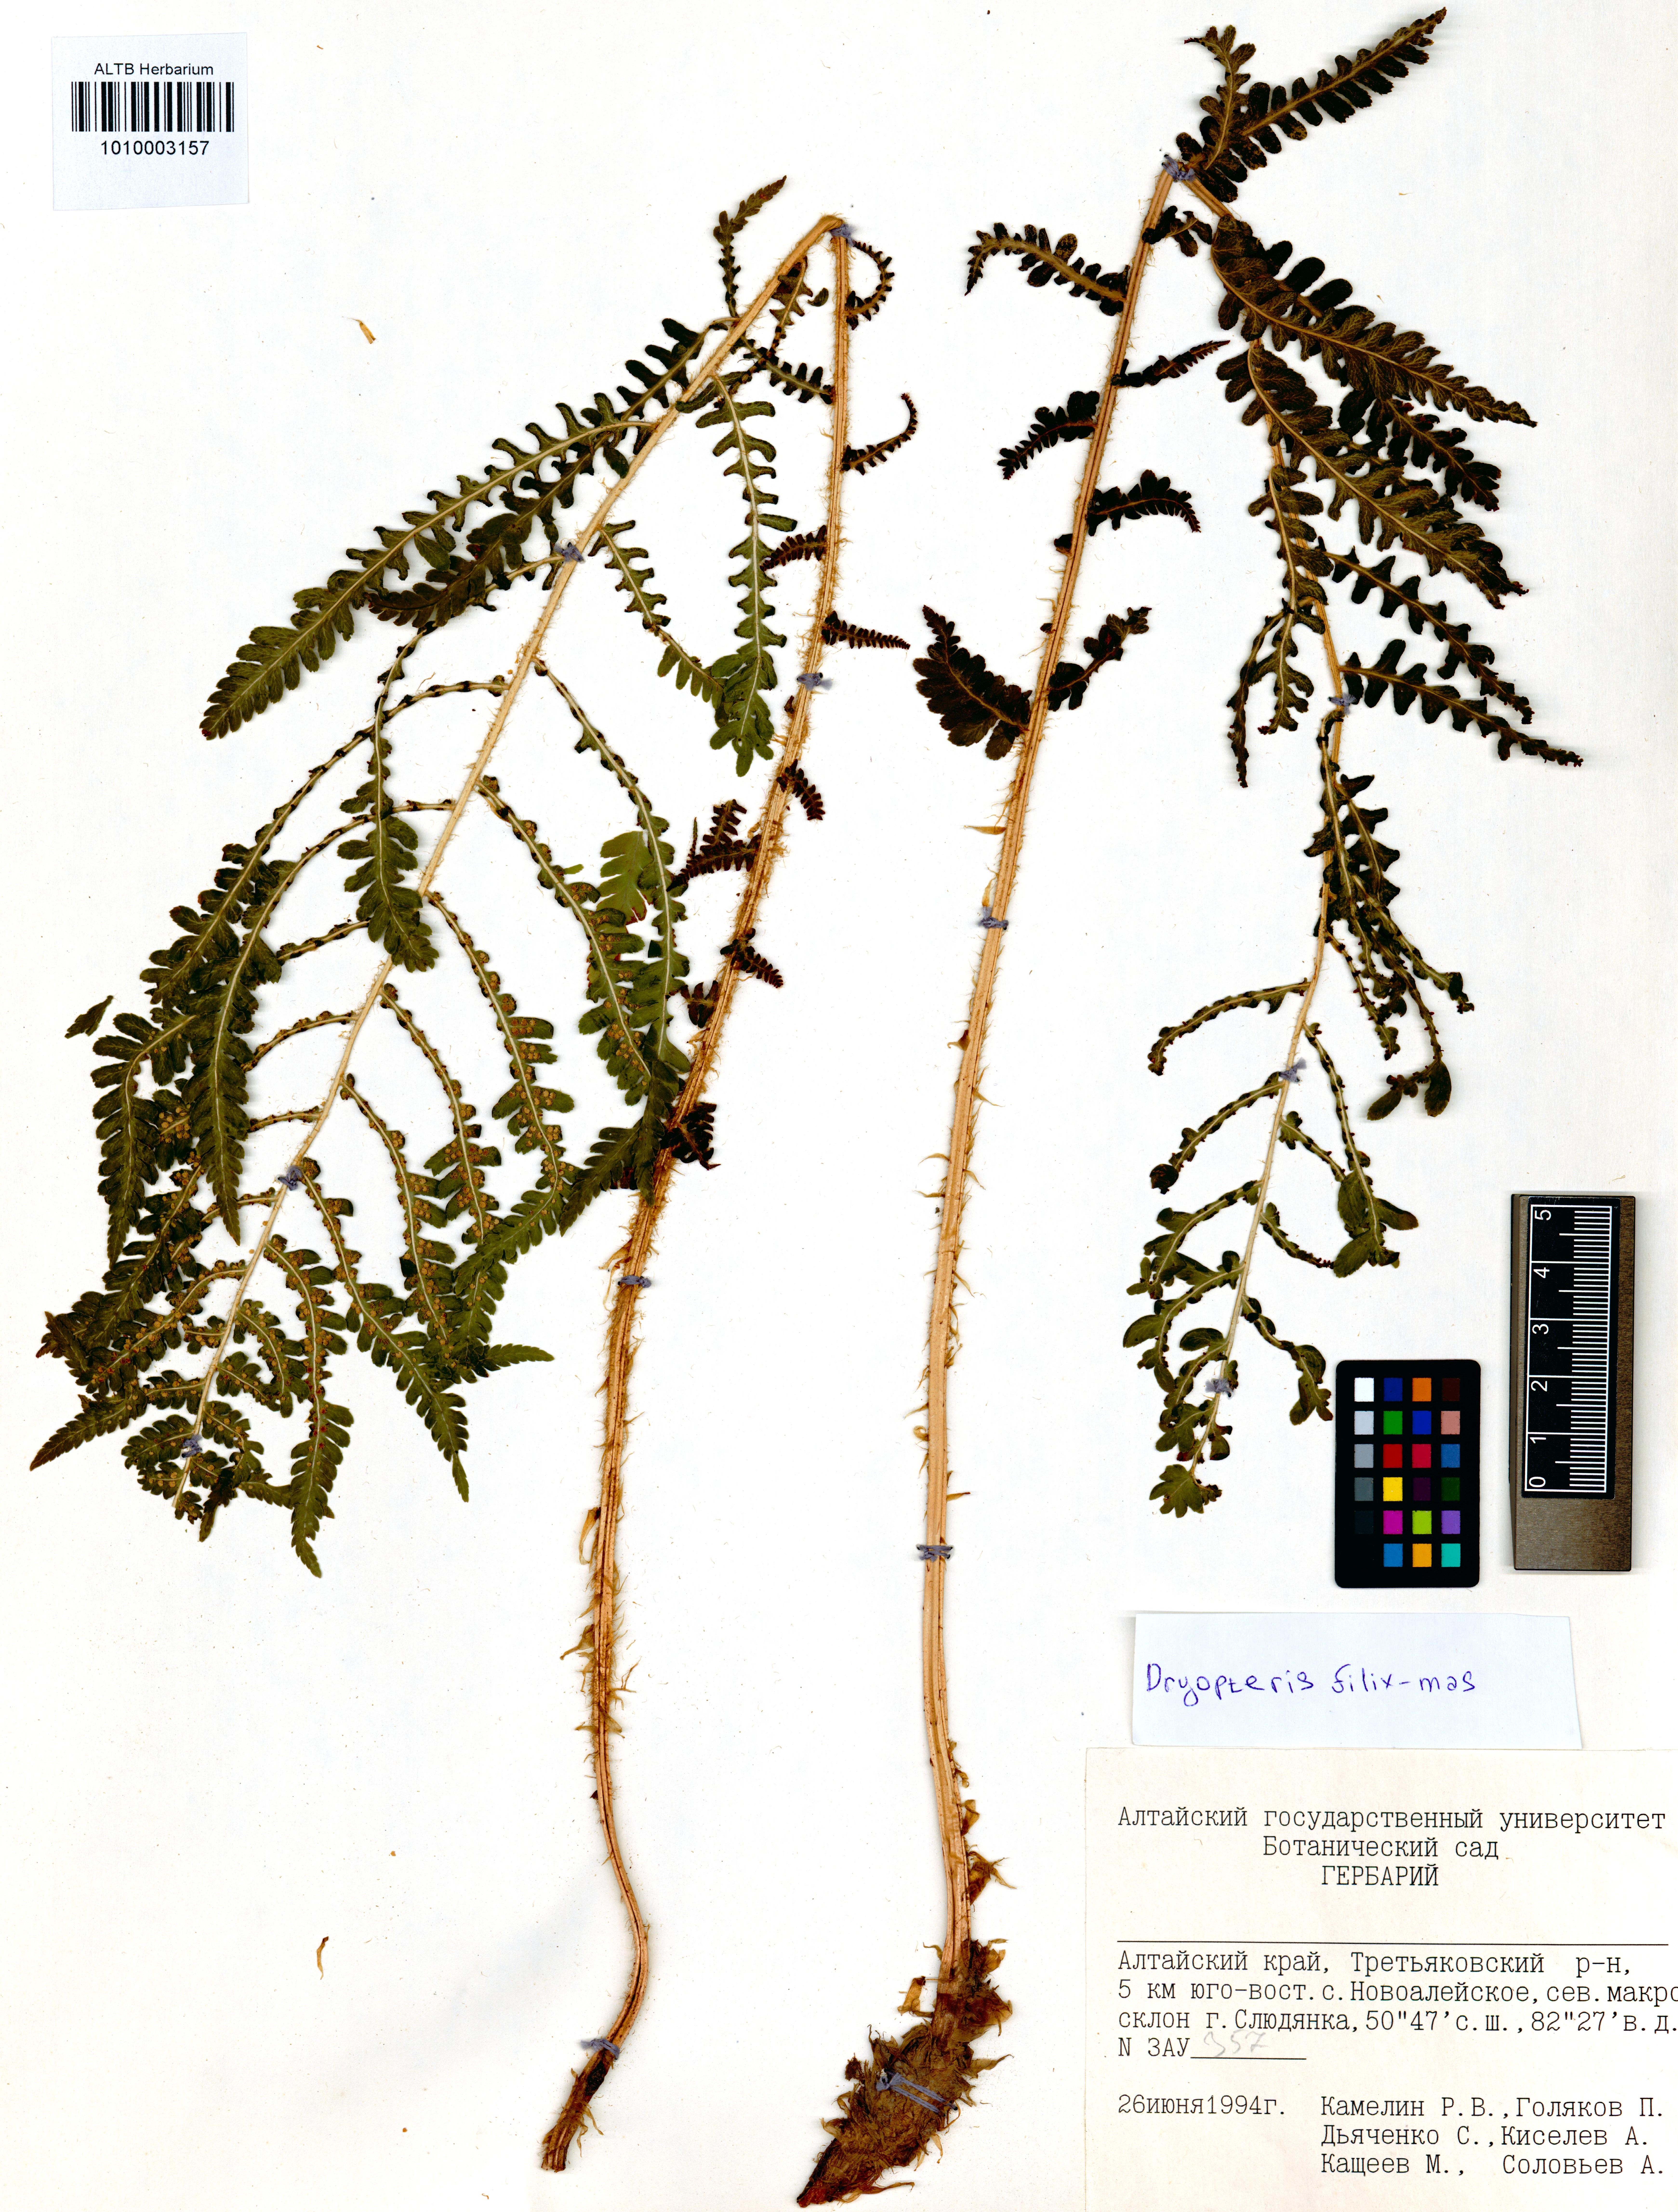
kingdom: Plantae
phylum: Tracheophyta
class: Polypodiopsida
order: Polypodiales
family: Dryopteridaceae
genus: Dryopteris
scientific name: Dryopteris filix-mas
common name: Male fern
